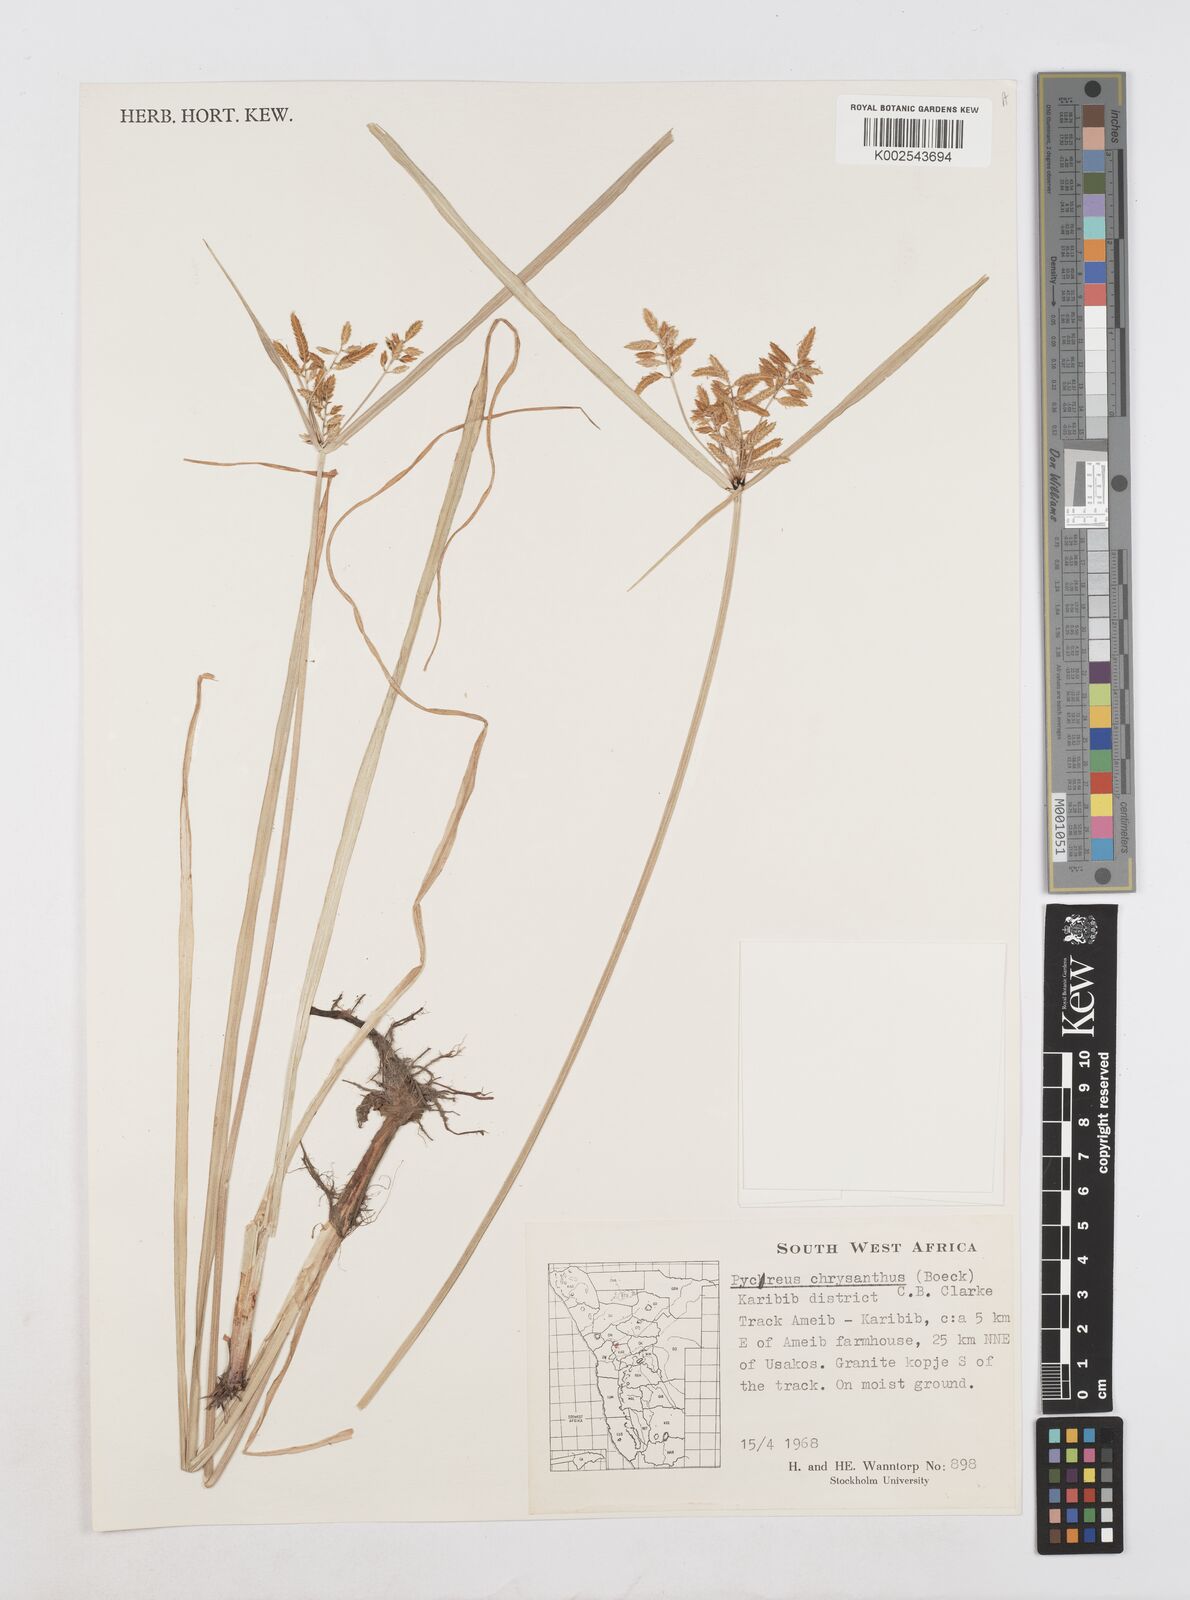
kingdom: Plantae
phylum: Tracheophyta
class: Liliopsida
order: Poales
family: Cyperaceae
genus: Cyperus
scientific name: Cyperus chrysanthus
